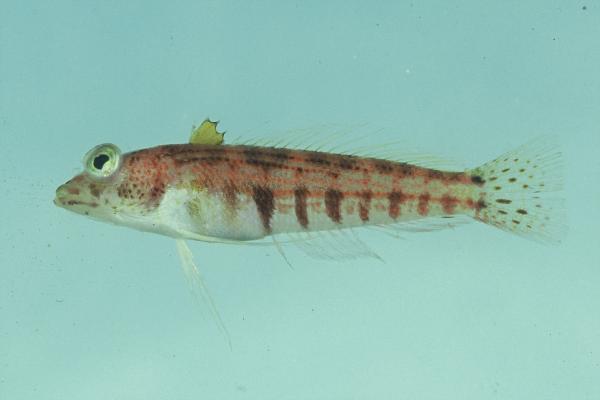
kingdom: Animalia
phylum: Chordata
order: Perciformes
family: Pinguipedidae
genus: Parapercis
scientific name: Parapercis snyderi
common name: U-mark sandperch
